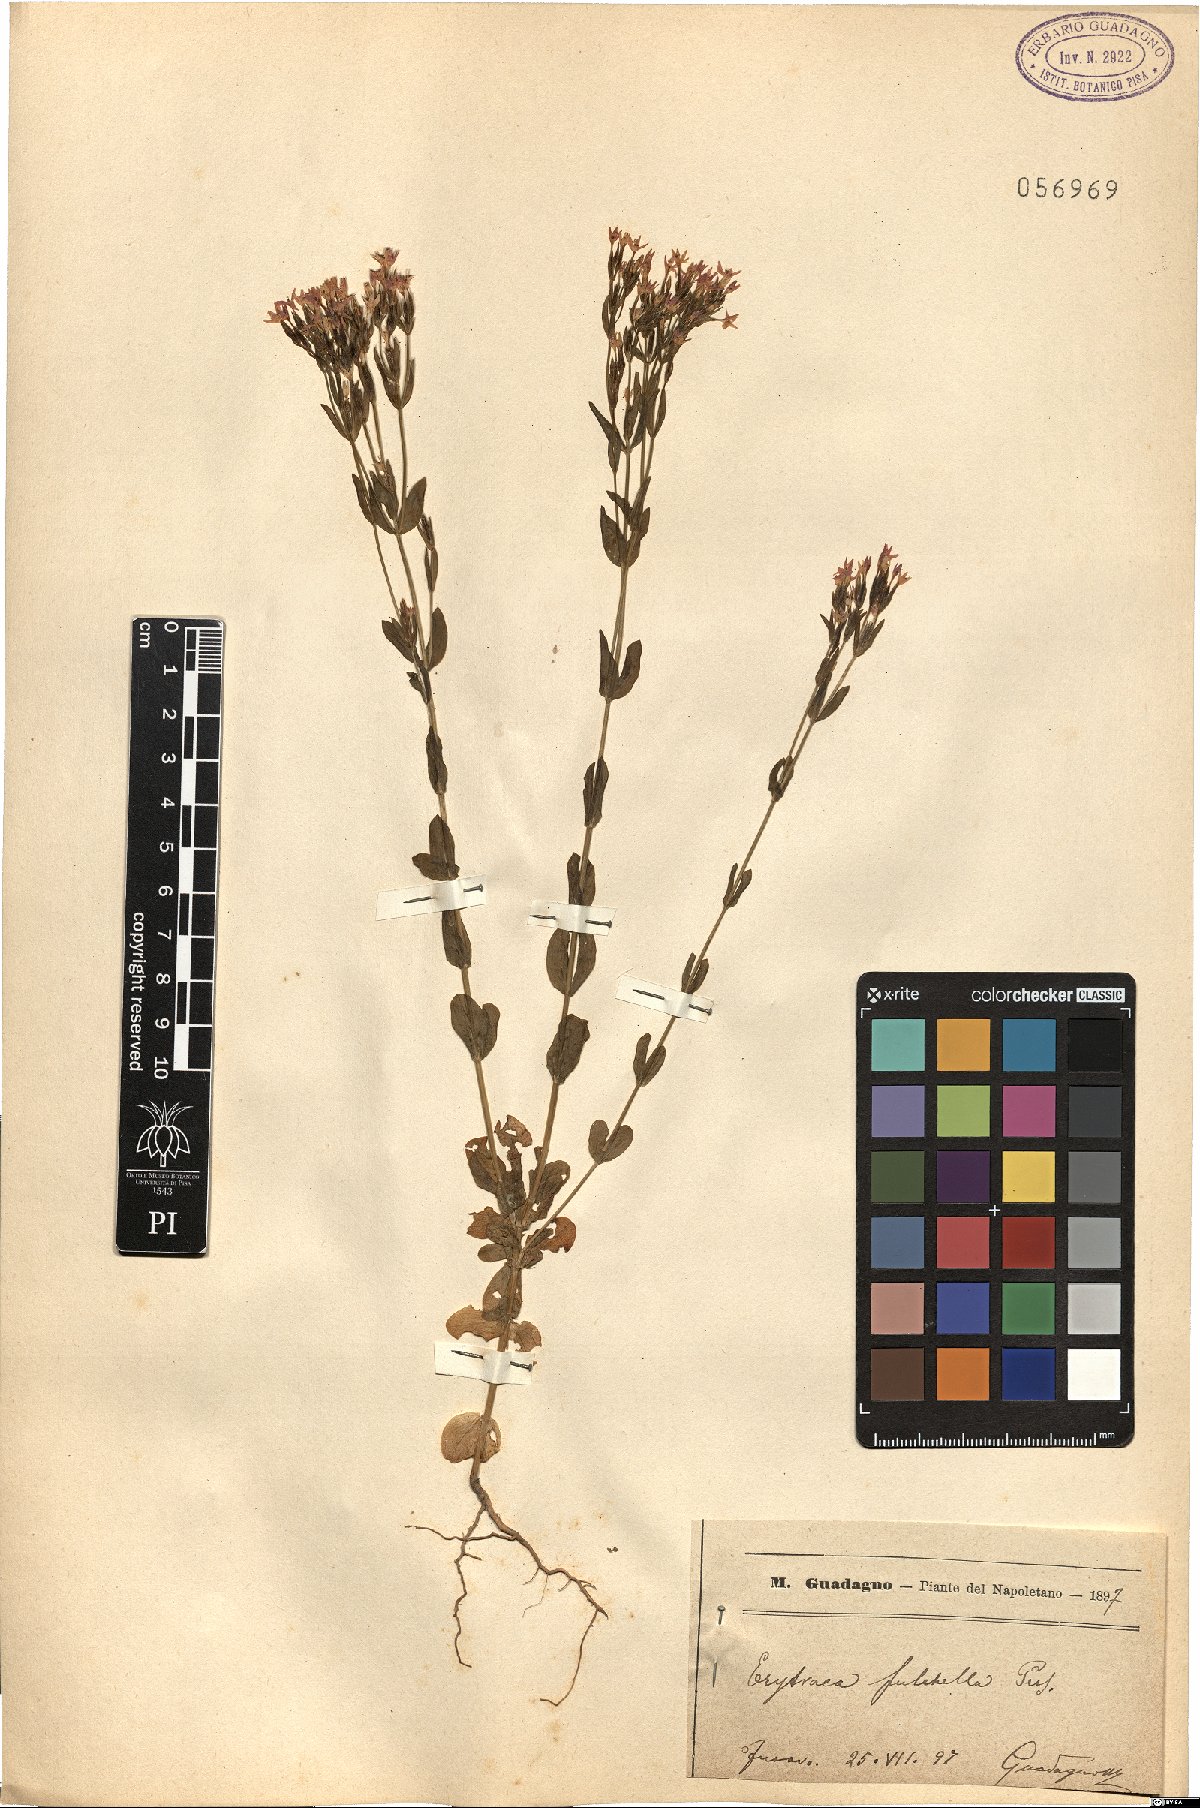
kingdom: Plantae
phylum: Tracheophyta
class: Magnoliopsida
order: Gentianales
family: Gentianaceae
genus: Centaurium
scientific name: Centaurium pulchellum
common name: Lesser centaury
